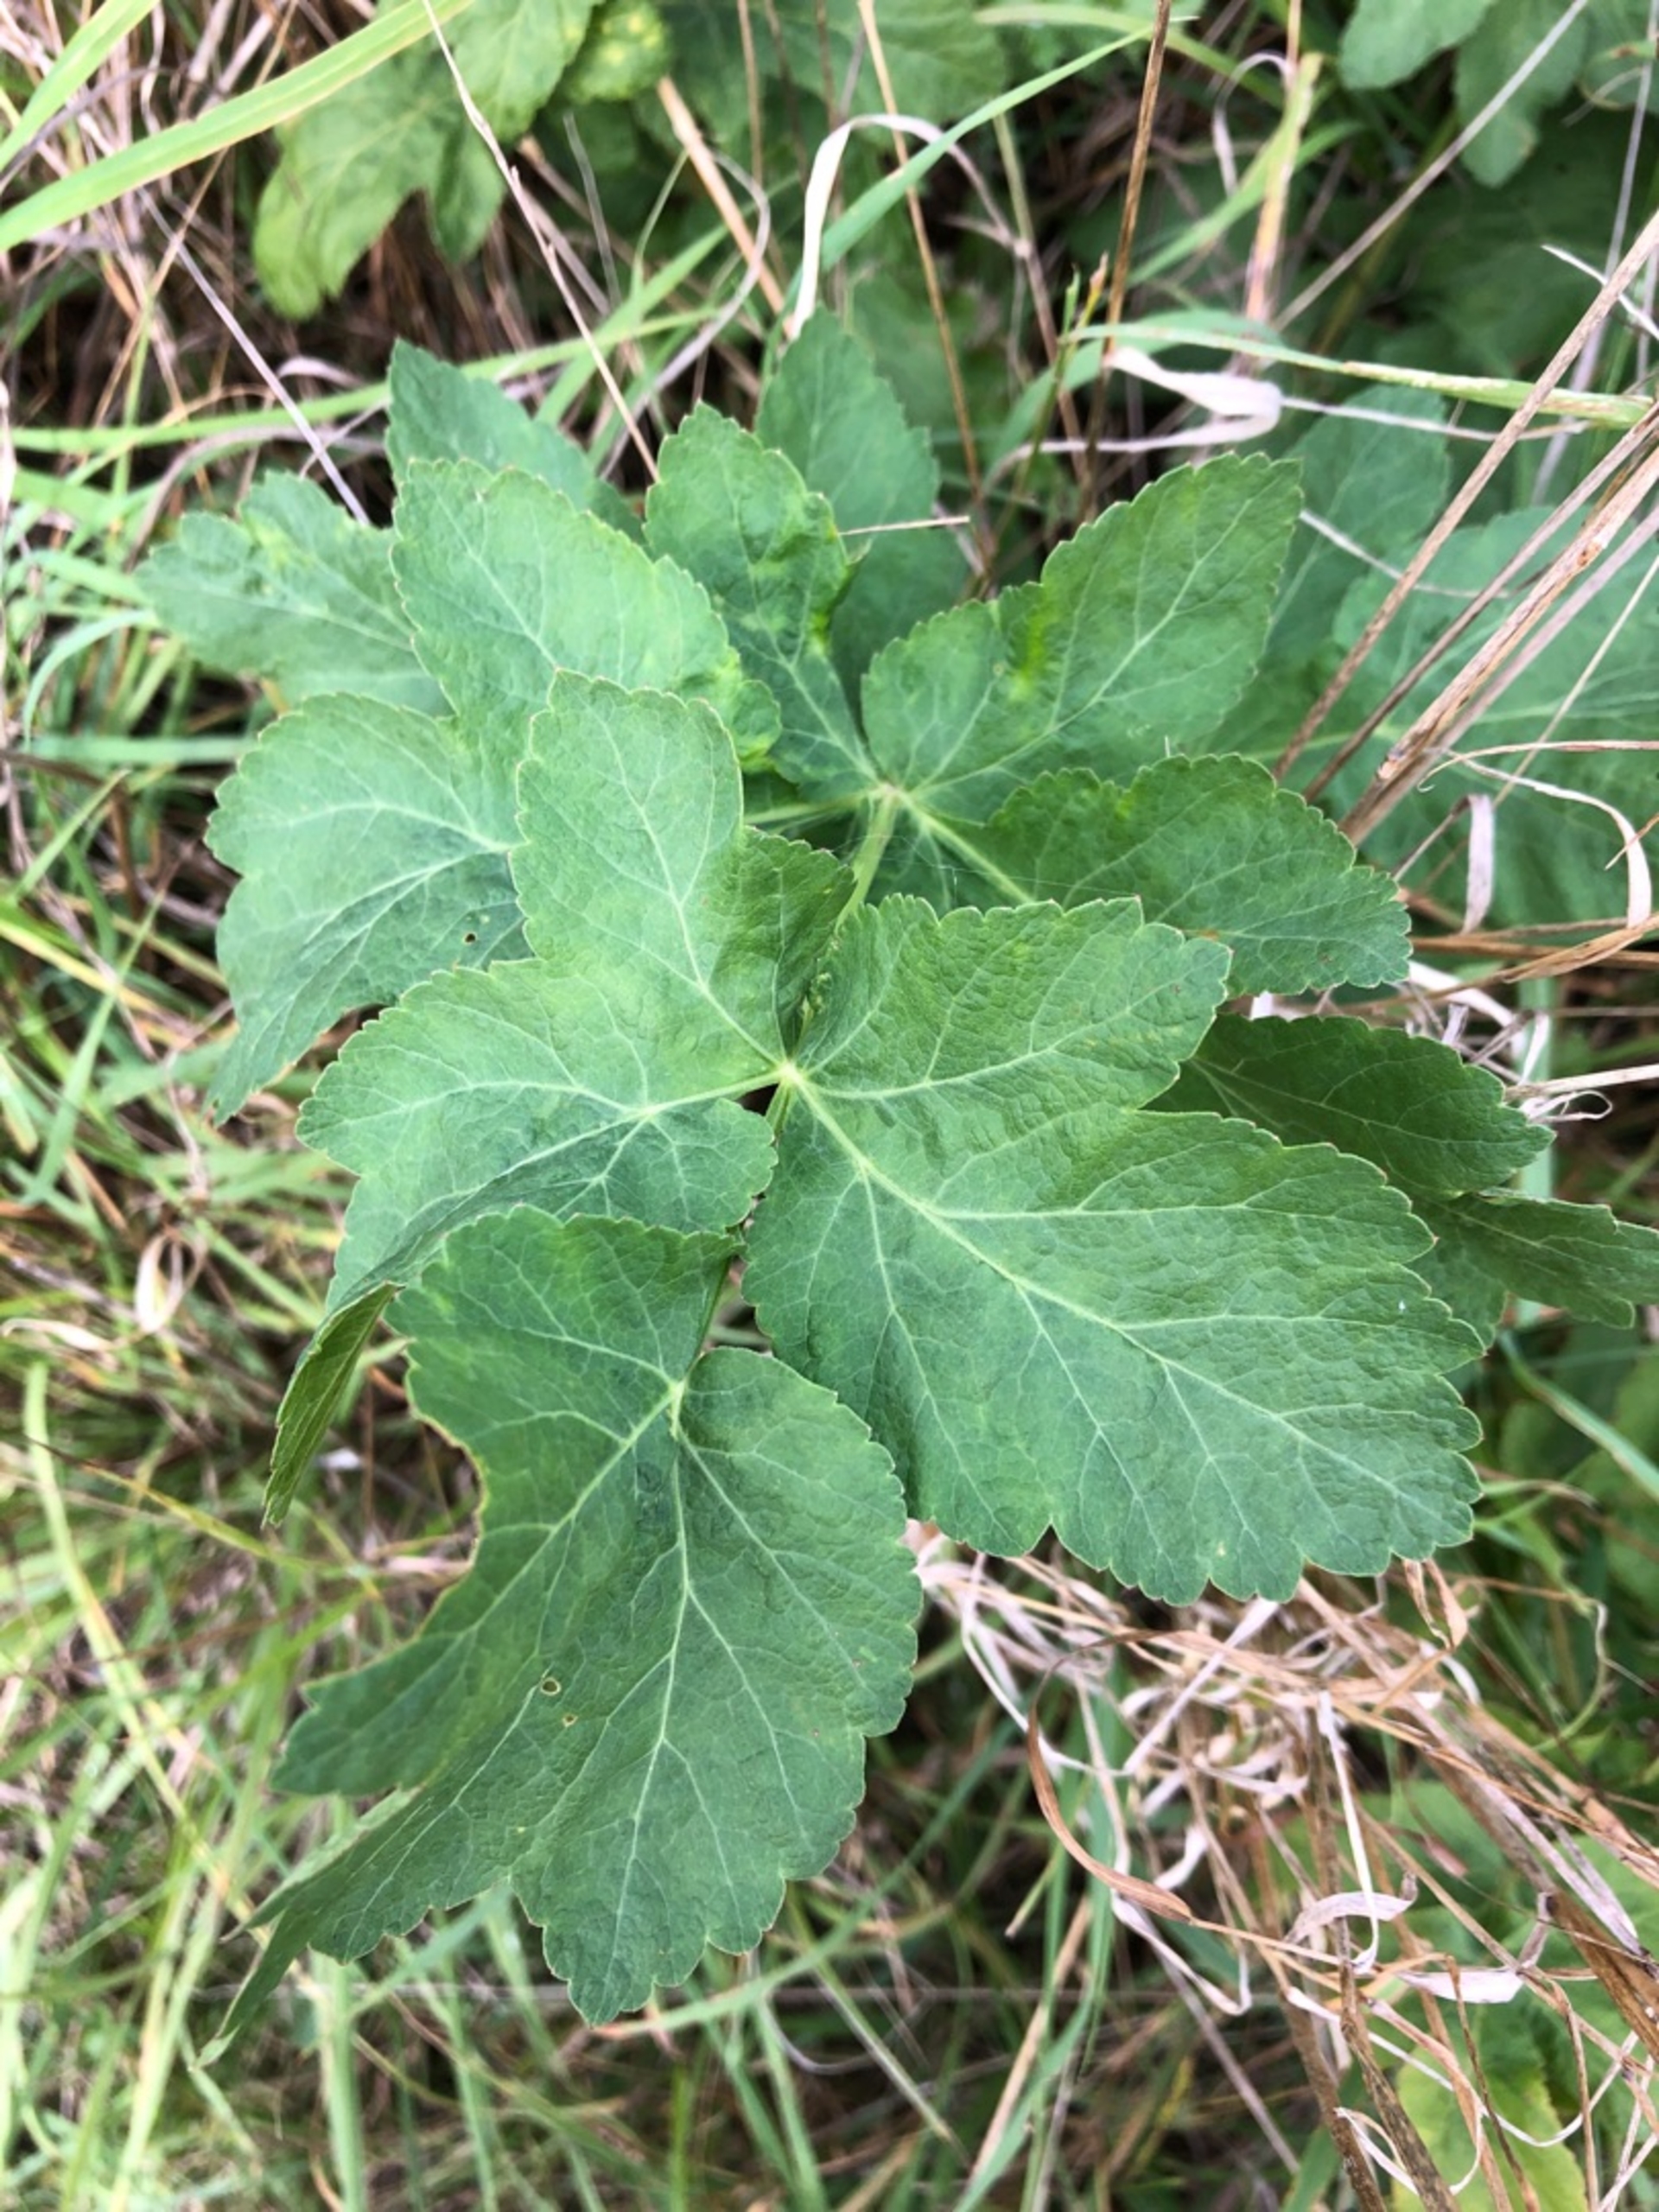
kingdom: Plantae
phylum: Tracheophyta
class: Magnoliopsida
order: Apiales
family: Apiaceae
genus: Angelica
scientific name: Angelica archangelica
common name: Kvan
